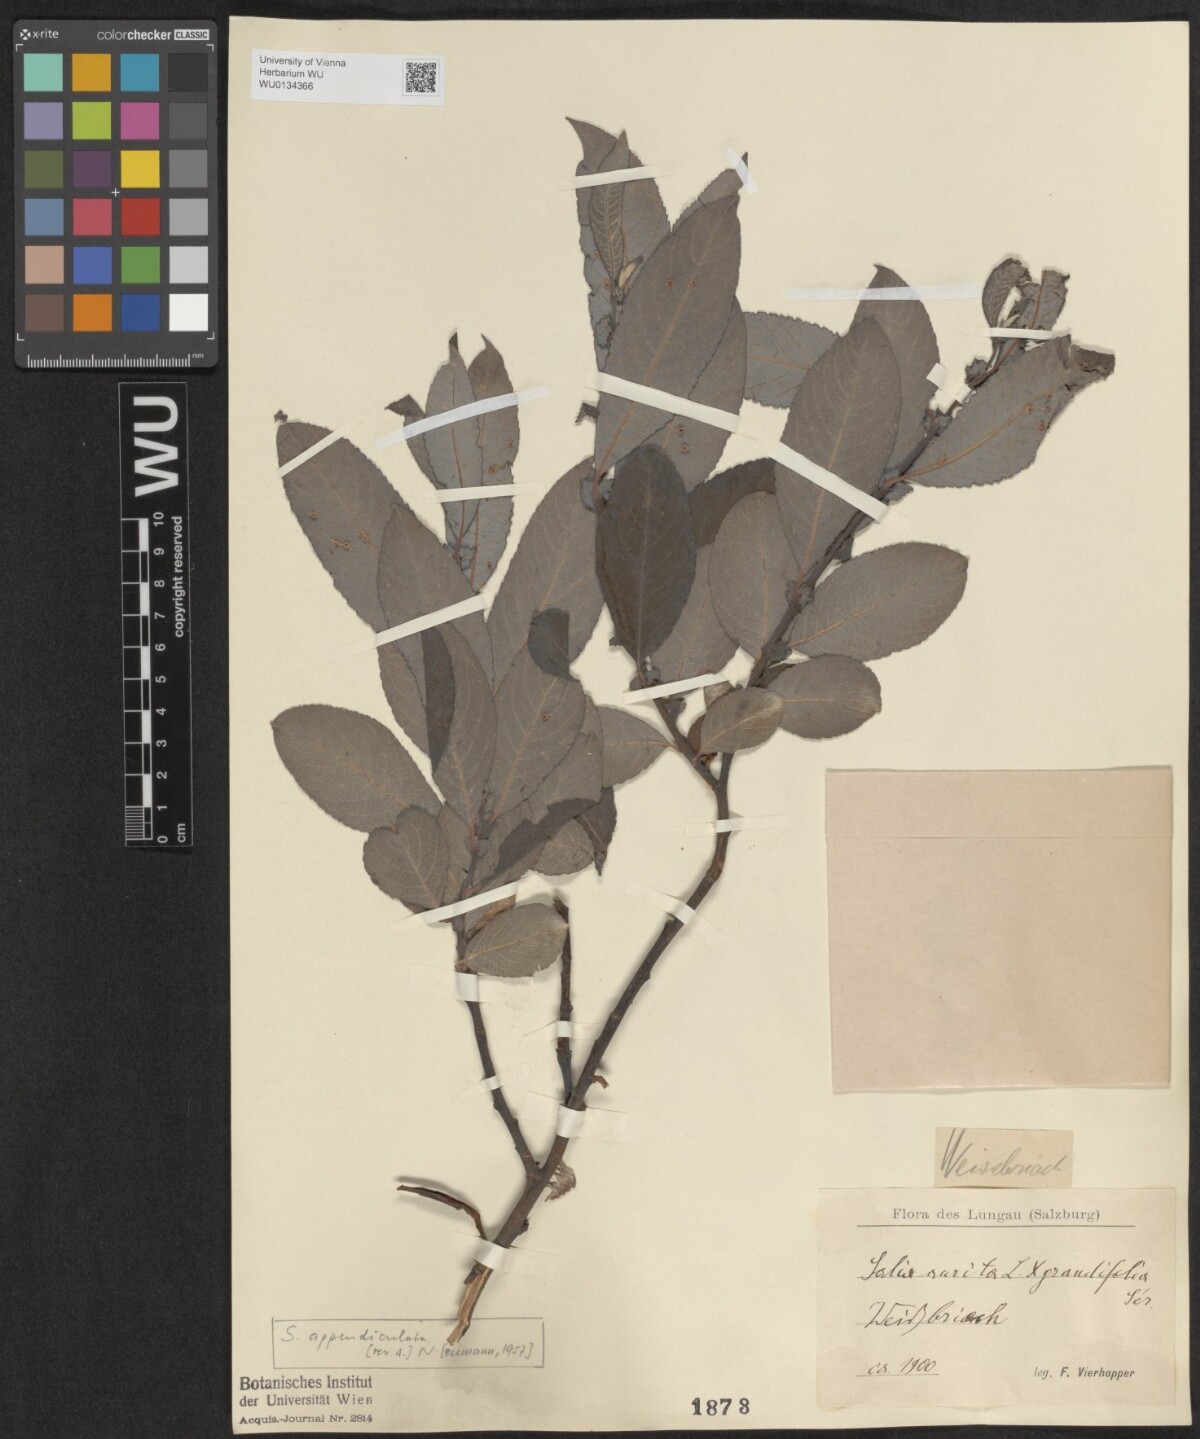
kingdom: Plantae
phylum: Tracheophyta
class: Magnoliopsida
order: Malpighiales
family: Salicaceae
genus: Salix
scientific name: Salix appendiculata
